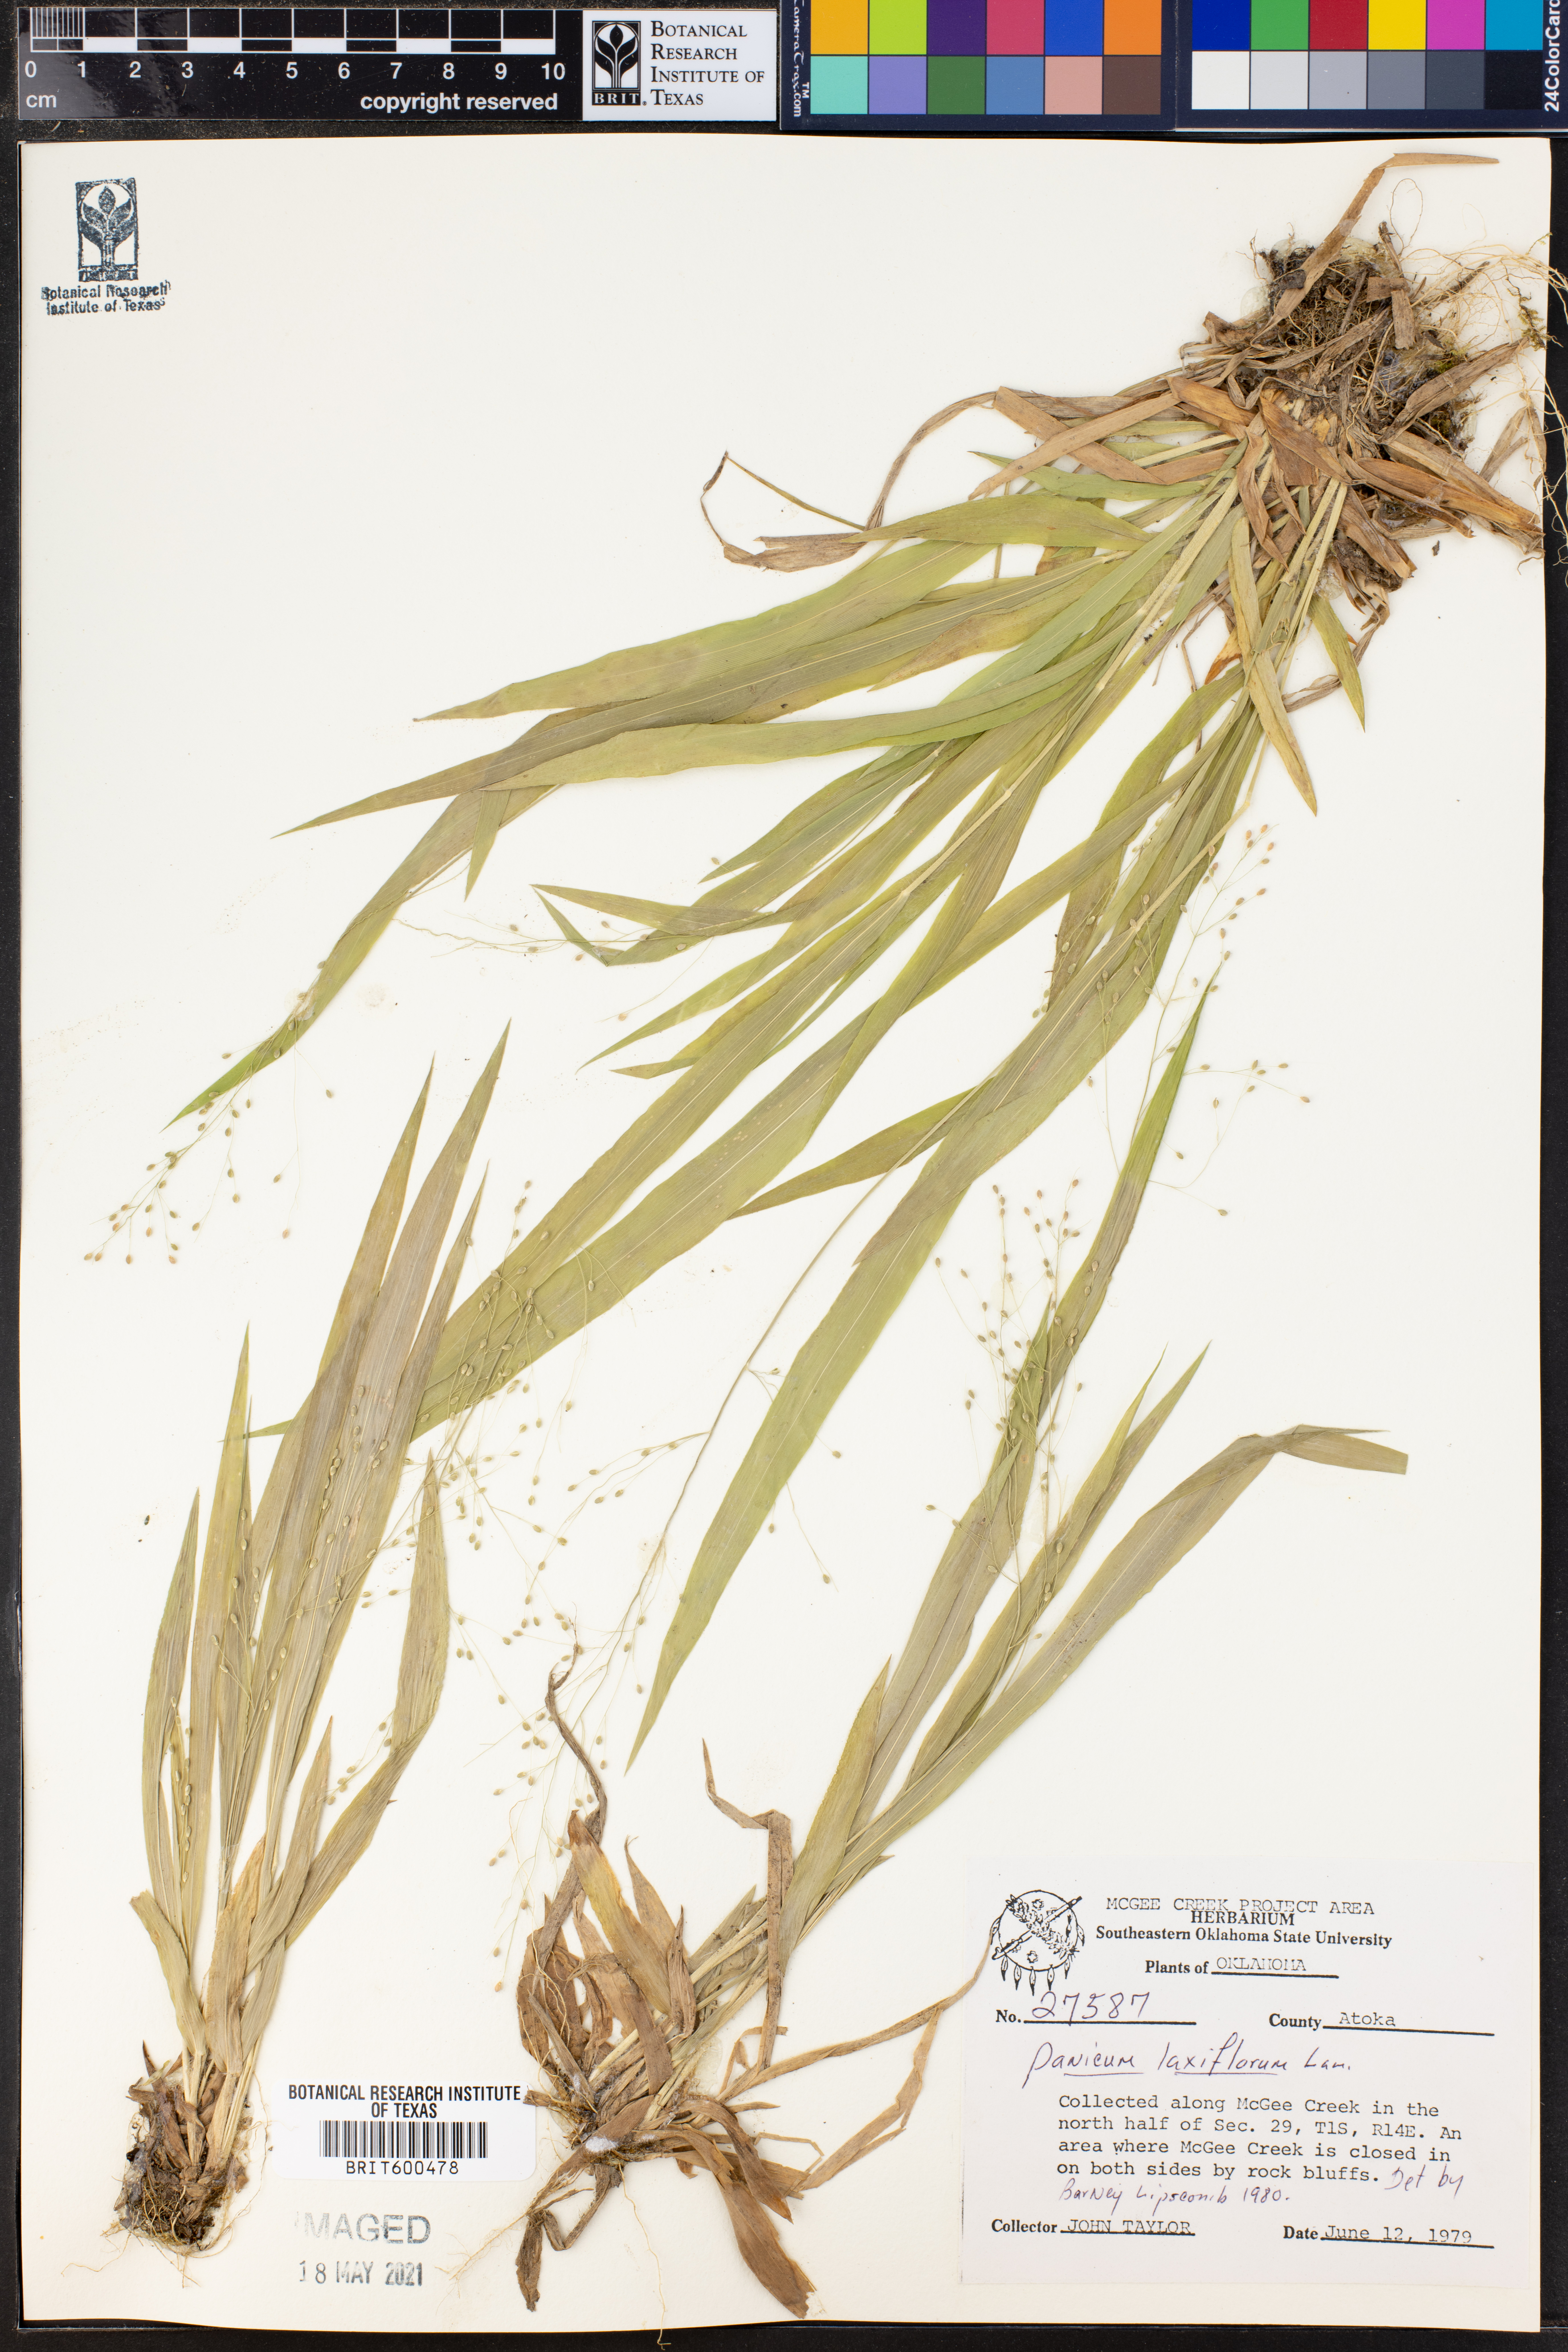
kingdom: Plantae
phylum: Tracheophyta
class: Liliopsida
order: Poales
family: Poaceae
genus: Dichanthelium
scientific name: Dichanthelium laxiflorum
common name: Soft-tuft panic grass
